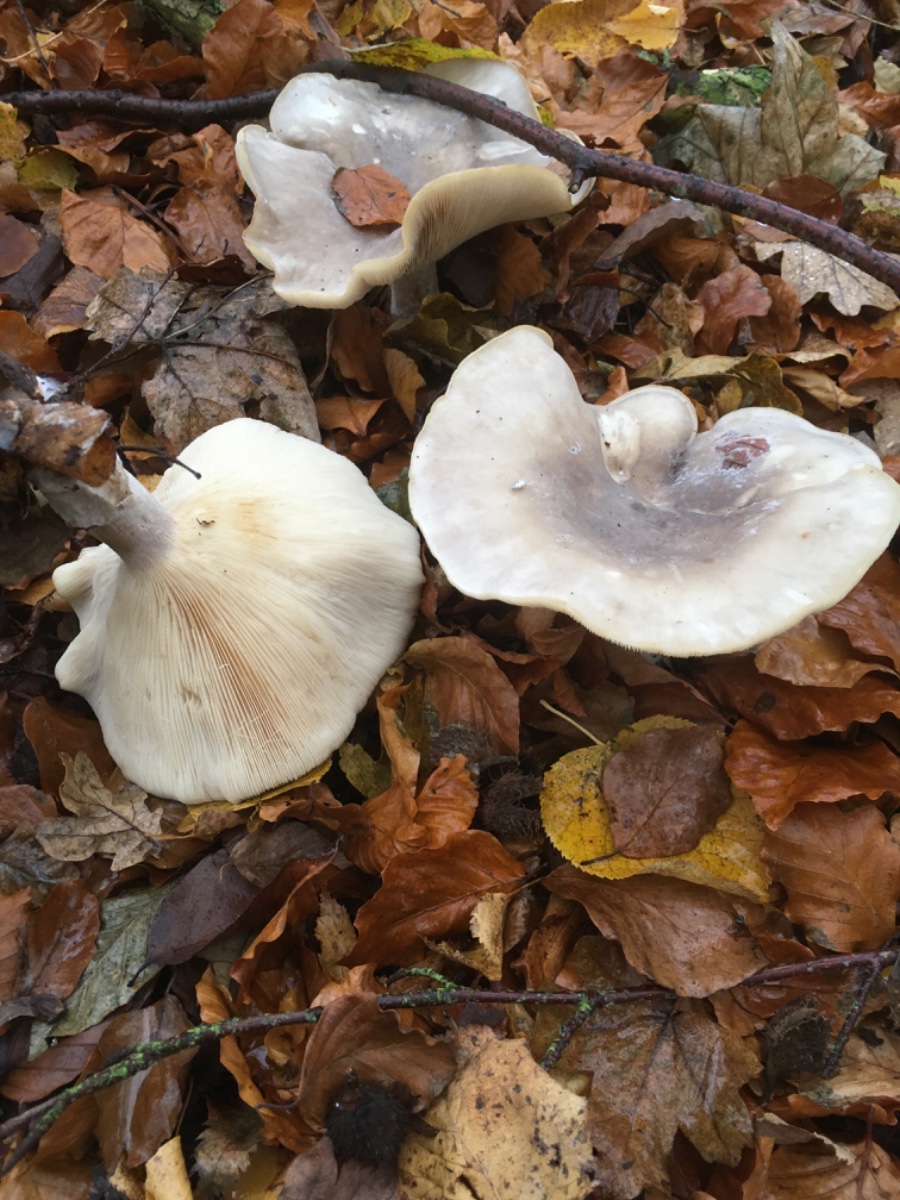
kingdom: Fungi
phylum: Basidiomycota
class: Agaricomycetes
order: Agaricales
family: Tricholomataceae
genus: Clitocybe
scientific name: Clitocybe nebularis
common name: tåge-tragthat
